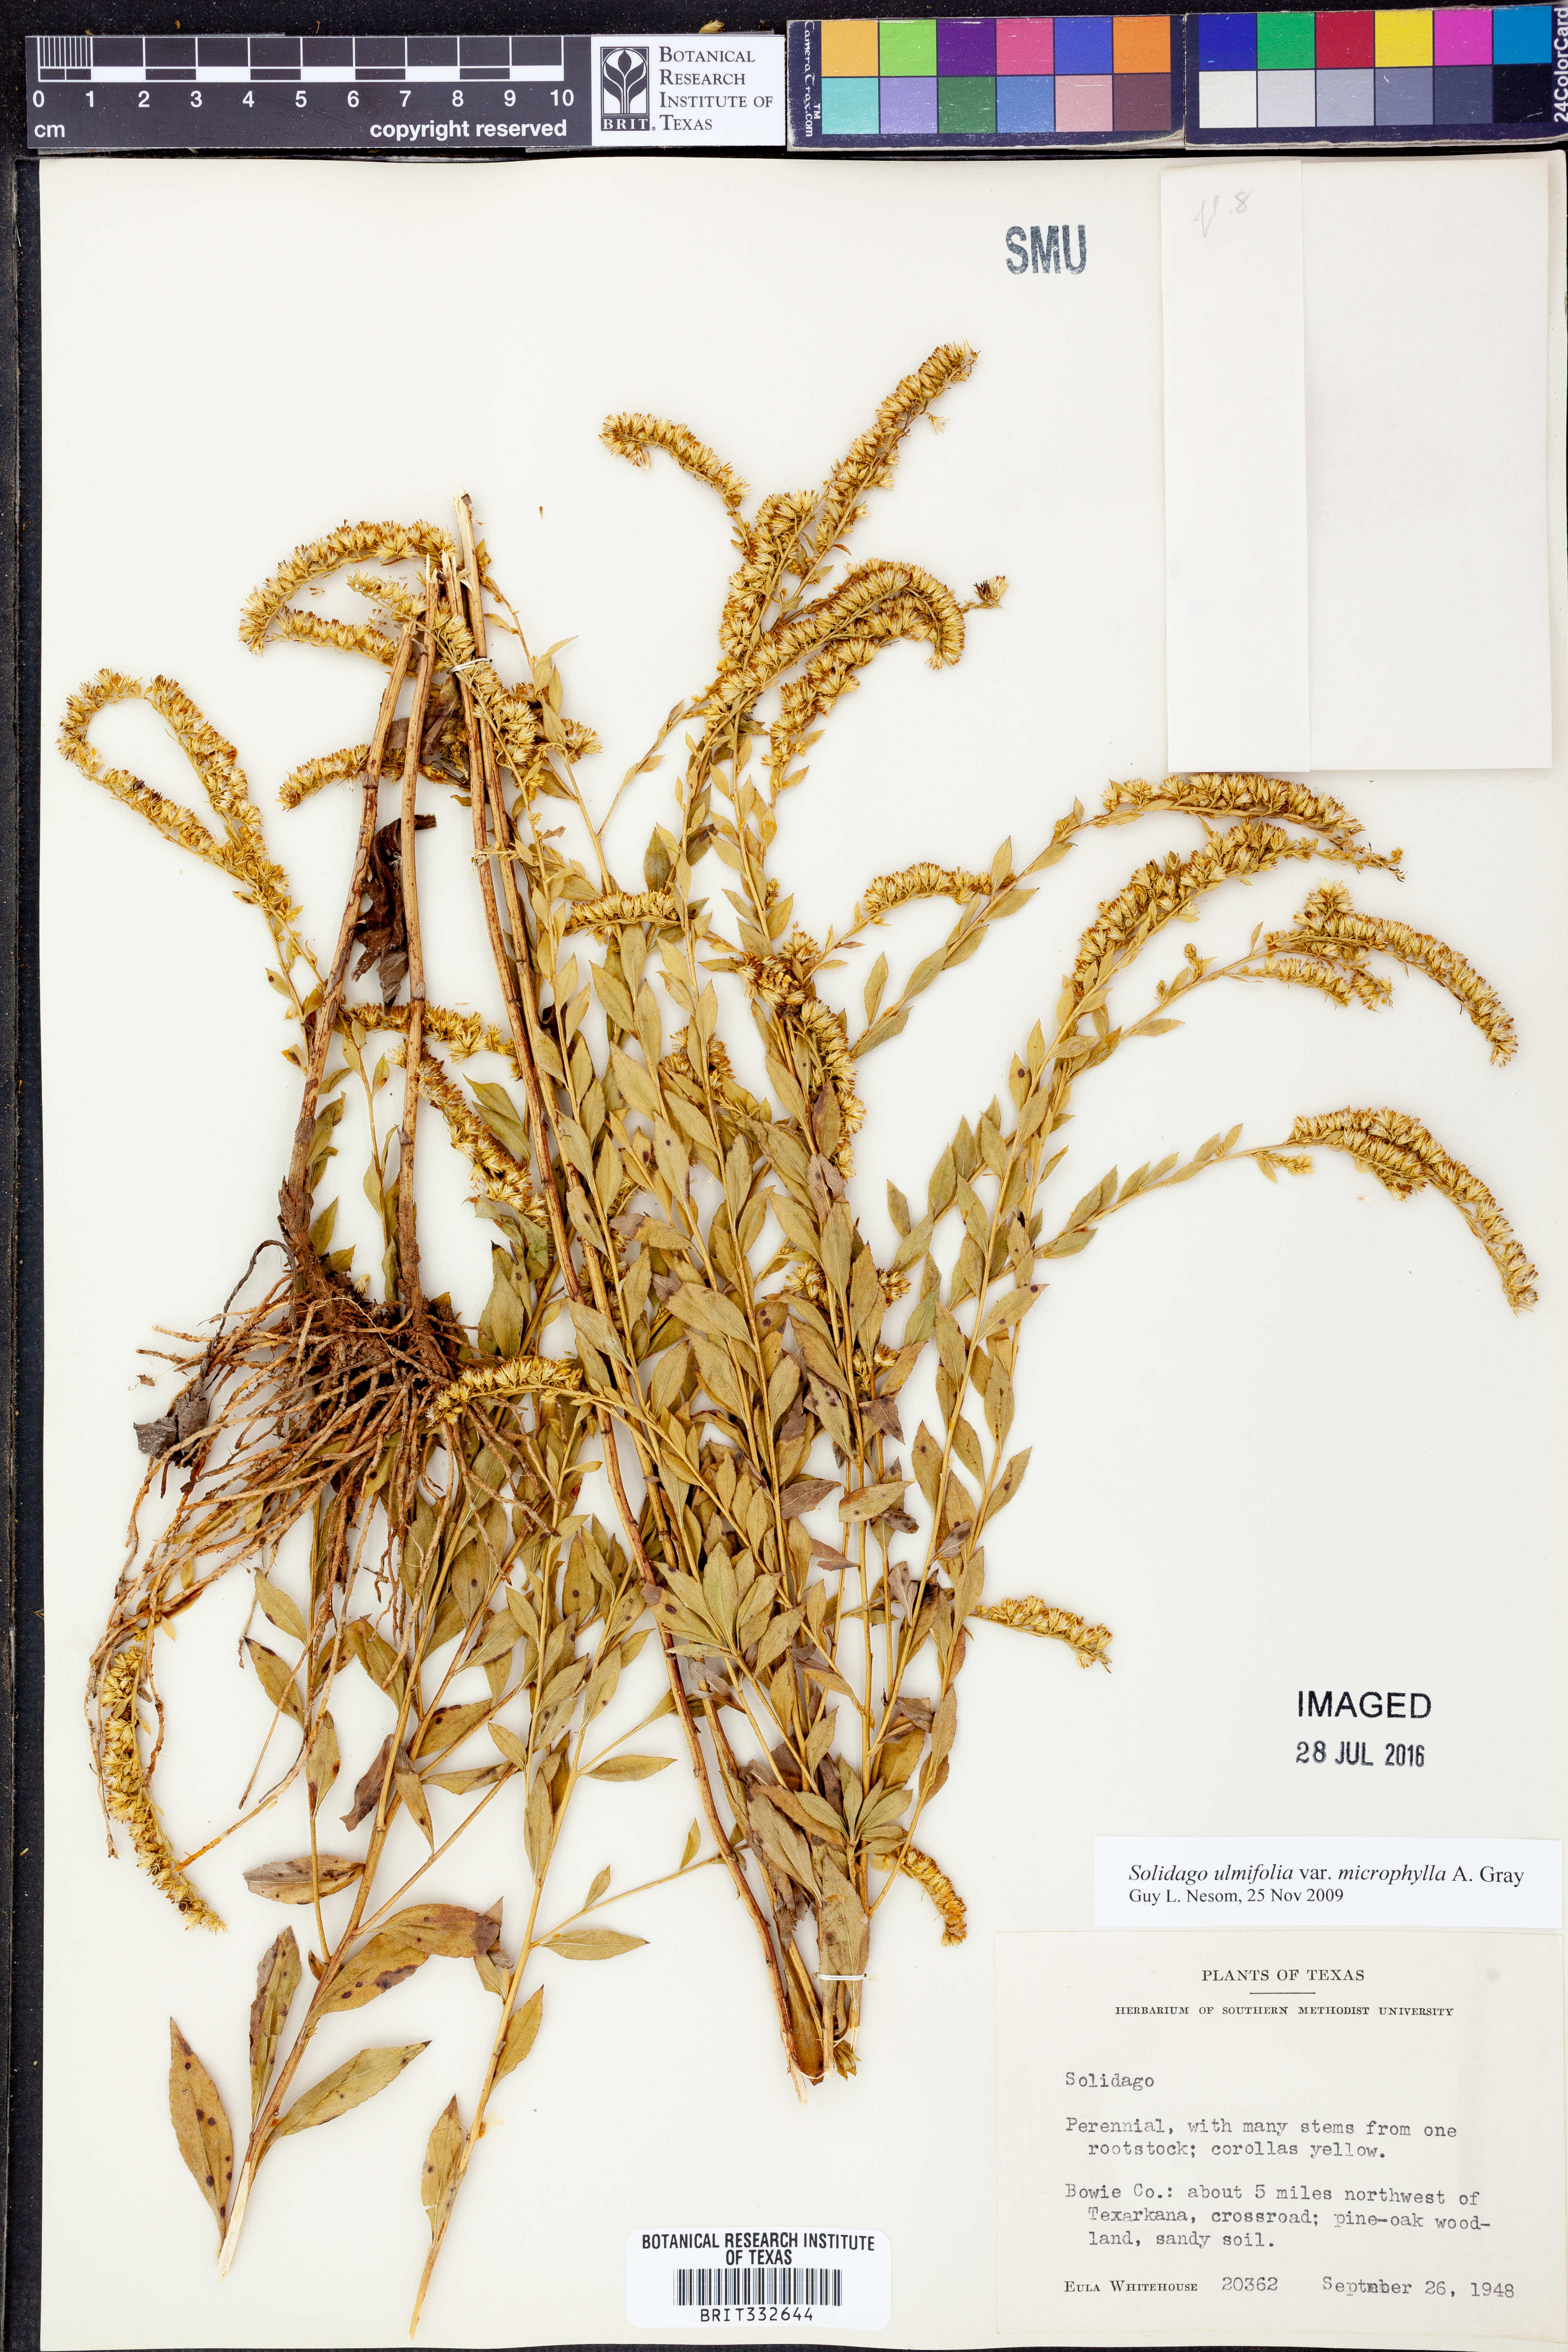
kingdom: Plantae
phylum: Tracheophyta
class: Magnoliopsida
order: Asterales
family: Asteraceae
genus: Solidago
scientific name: Solidago delicatula
